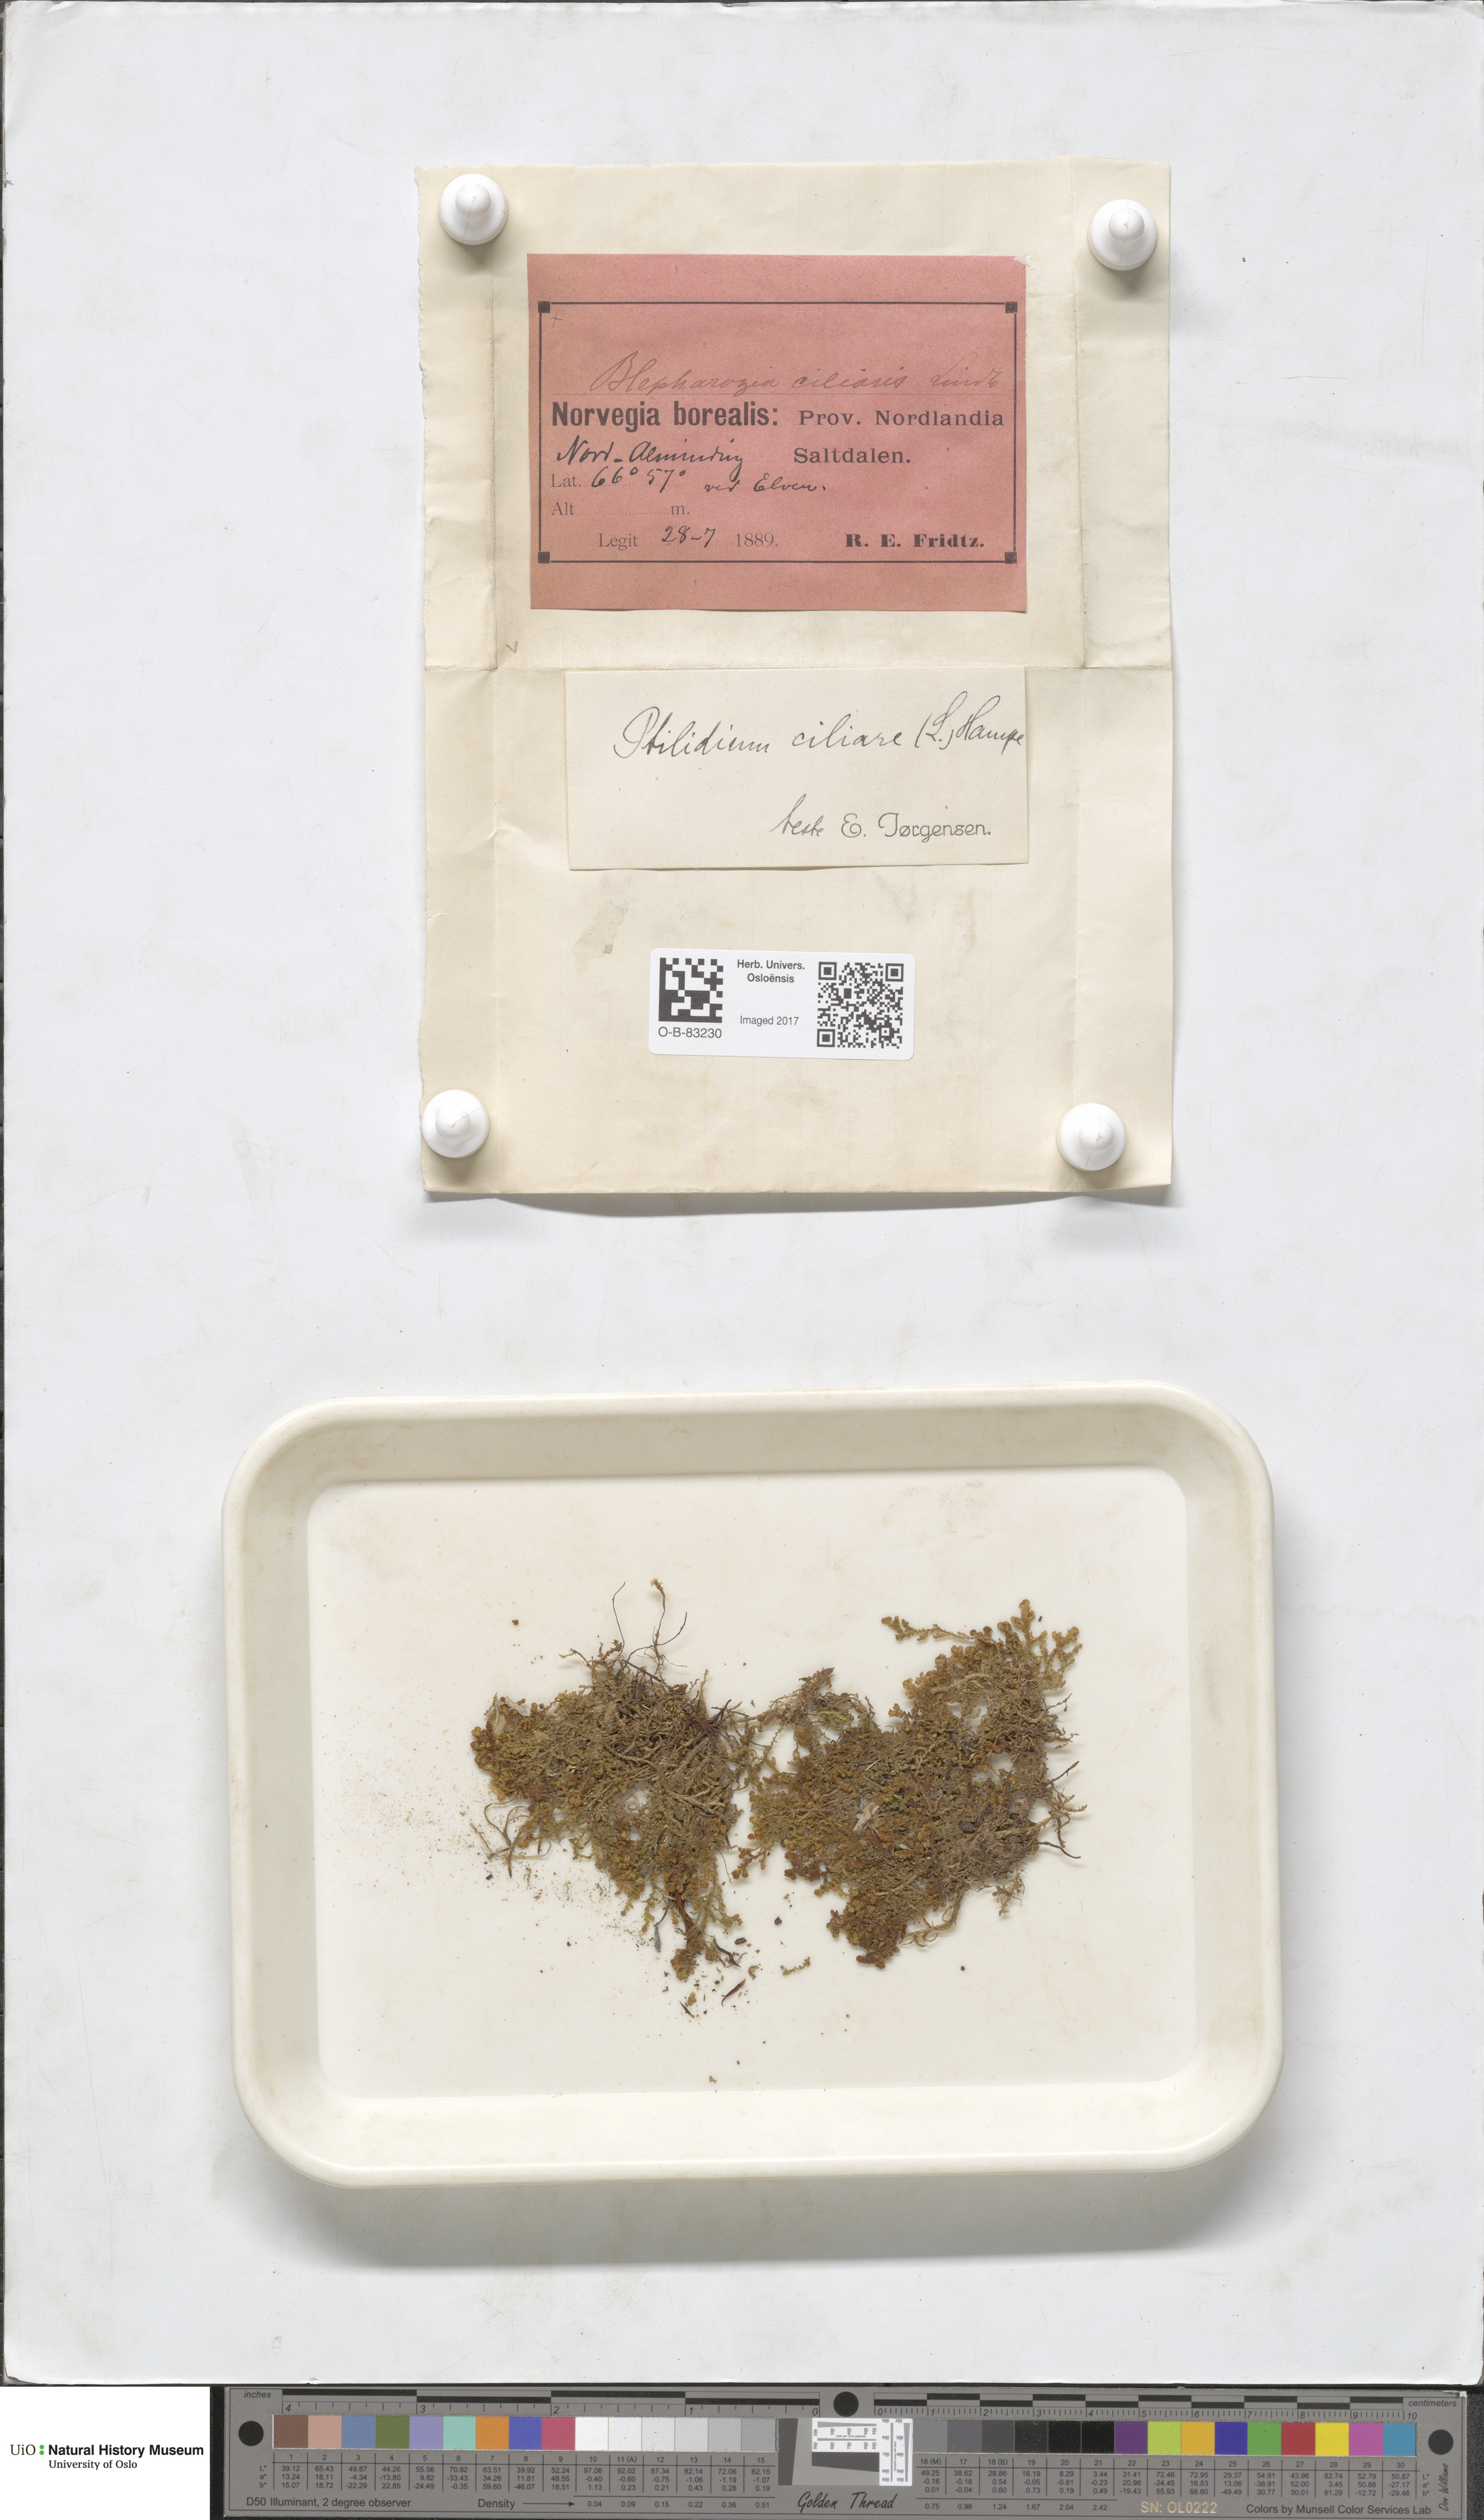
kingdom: Plantae
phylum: Marchantiophyta
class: Jungermanniopsida
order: Ptilidiales
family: Ptilidiaceae
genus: Ptilidium
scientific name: Ptilidium ciliare
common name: Ciliate fringewort
